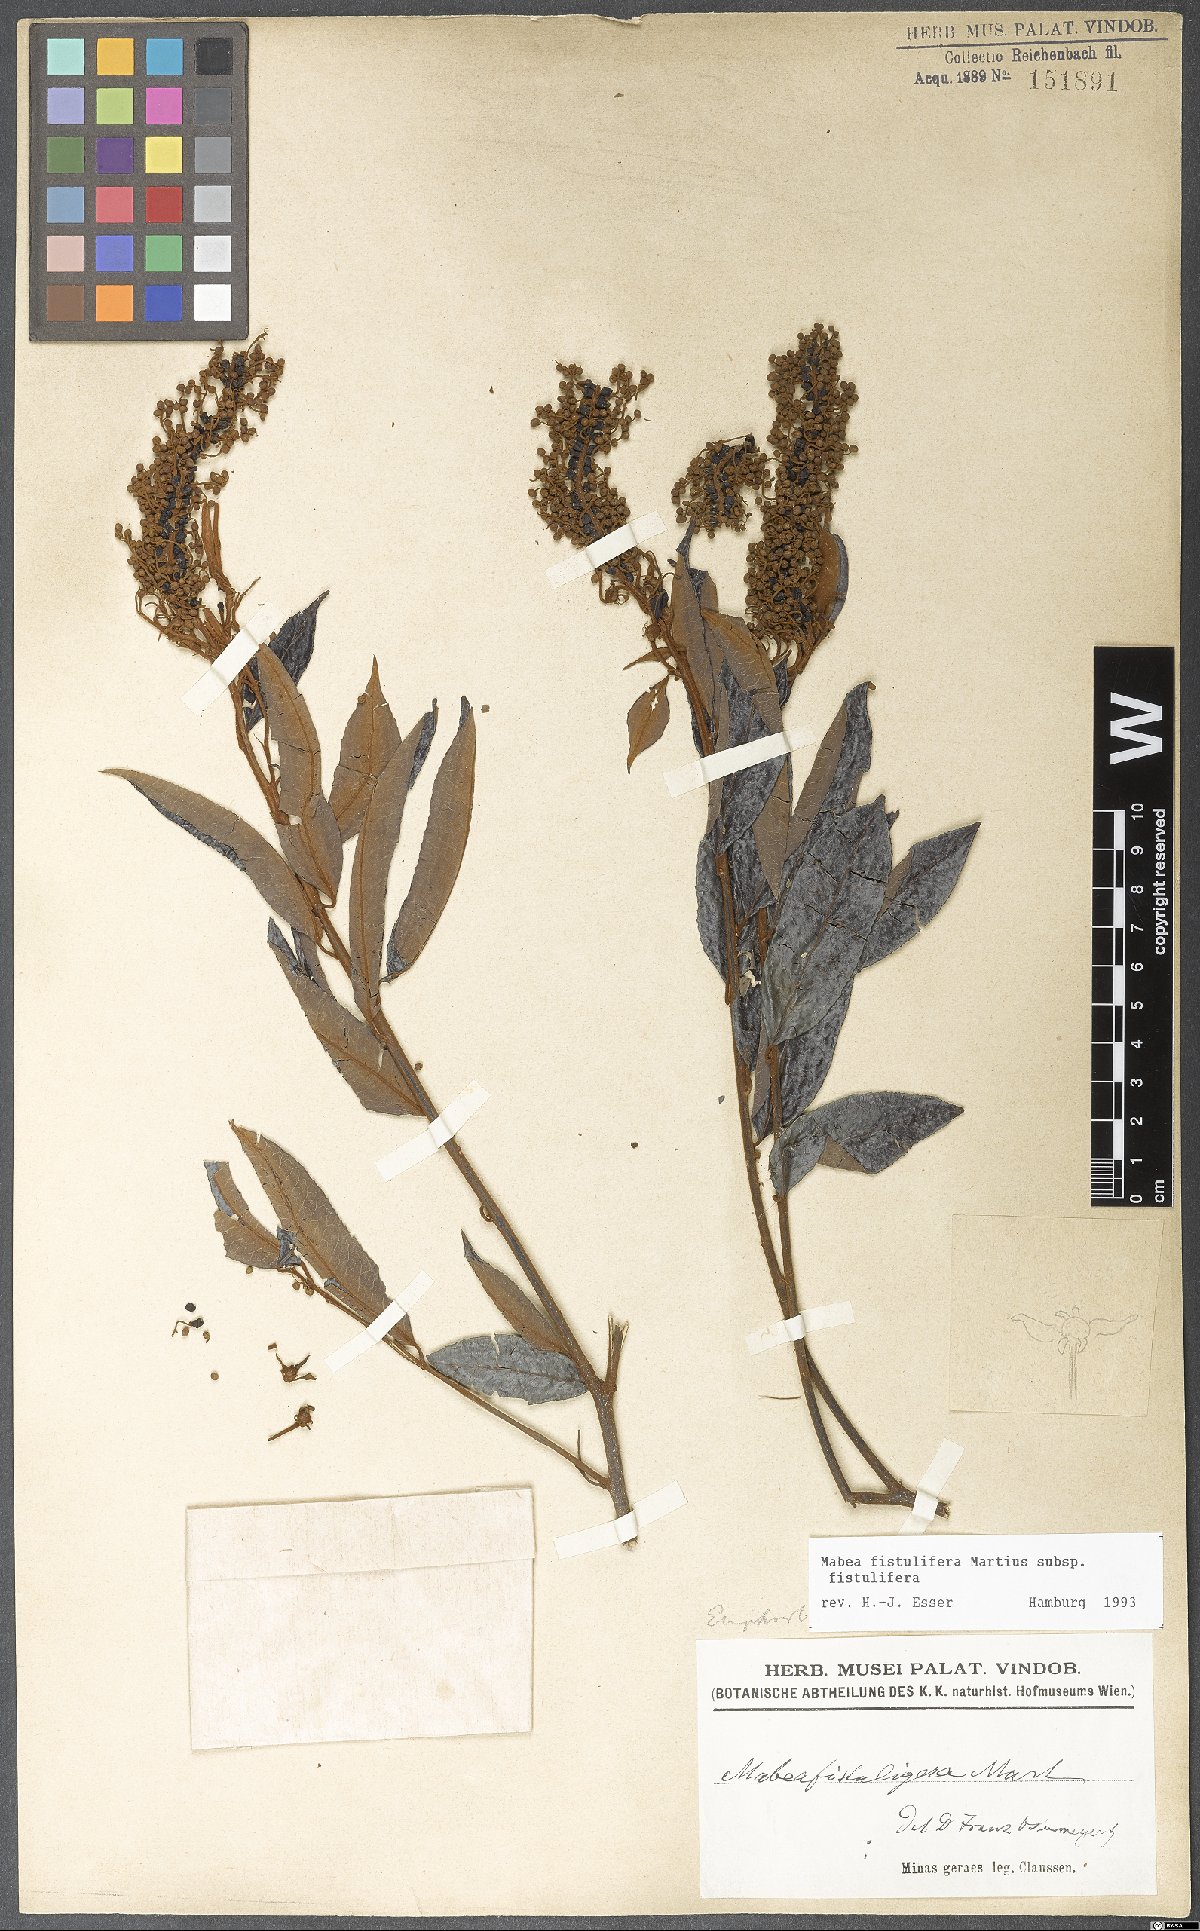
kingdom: Plantae
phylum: Tracheophyta
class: Magnoliopsida
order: Malpighiales
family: Euphorbiaceae
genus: Mabea
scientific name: Mabea fistulifera
